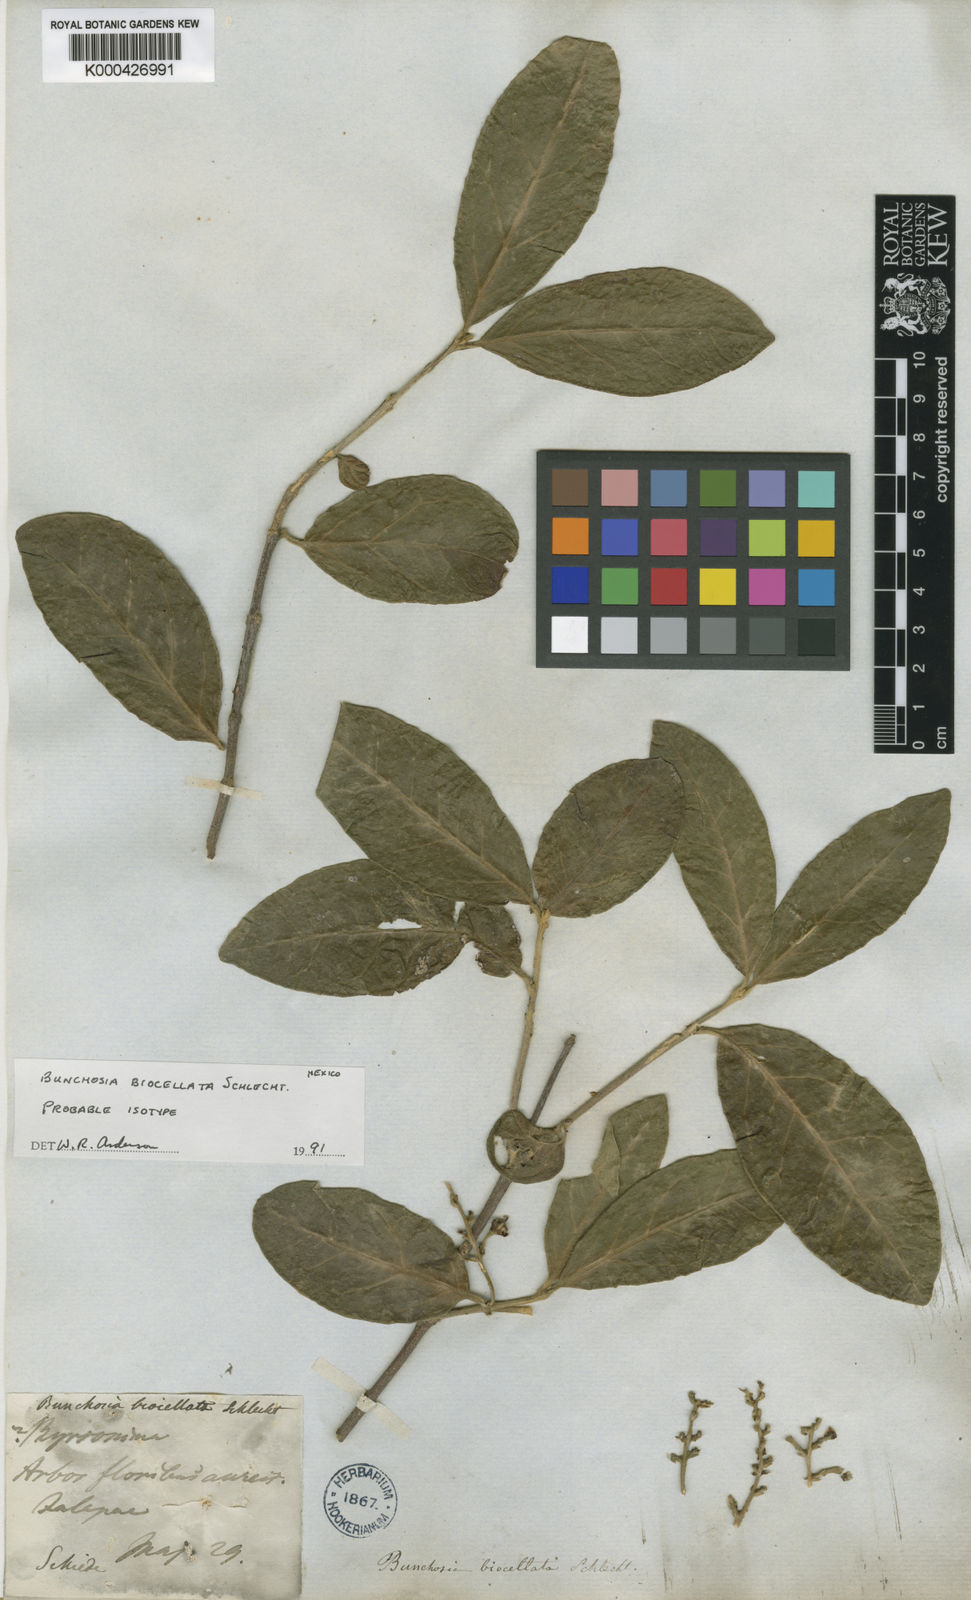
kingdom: Plantae
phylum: Tracheophyta
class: Magnoliopsida
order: Malpighiales
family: Malpighiaceae
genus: Bunchosia
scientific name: Bunchosia biocellata
